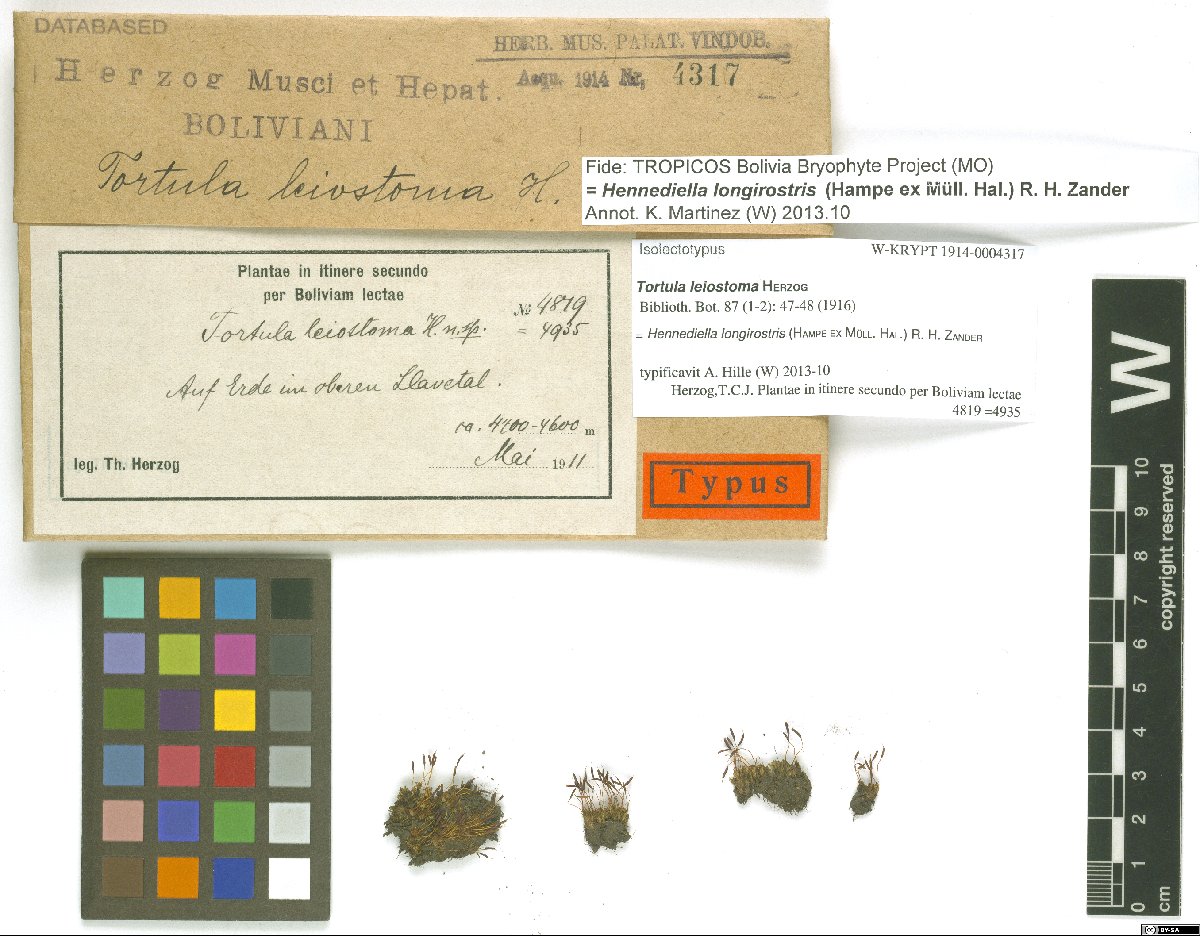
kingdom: Plantae
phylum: Bryophyta
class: Bryopsida
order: Pottiales
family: Pottiaceae
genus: Hennediella
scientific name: Hennediella longirostris
